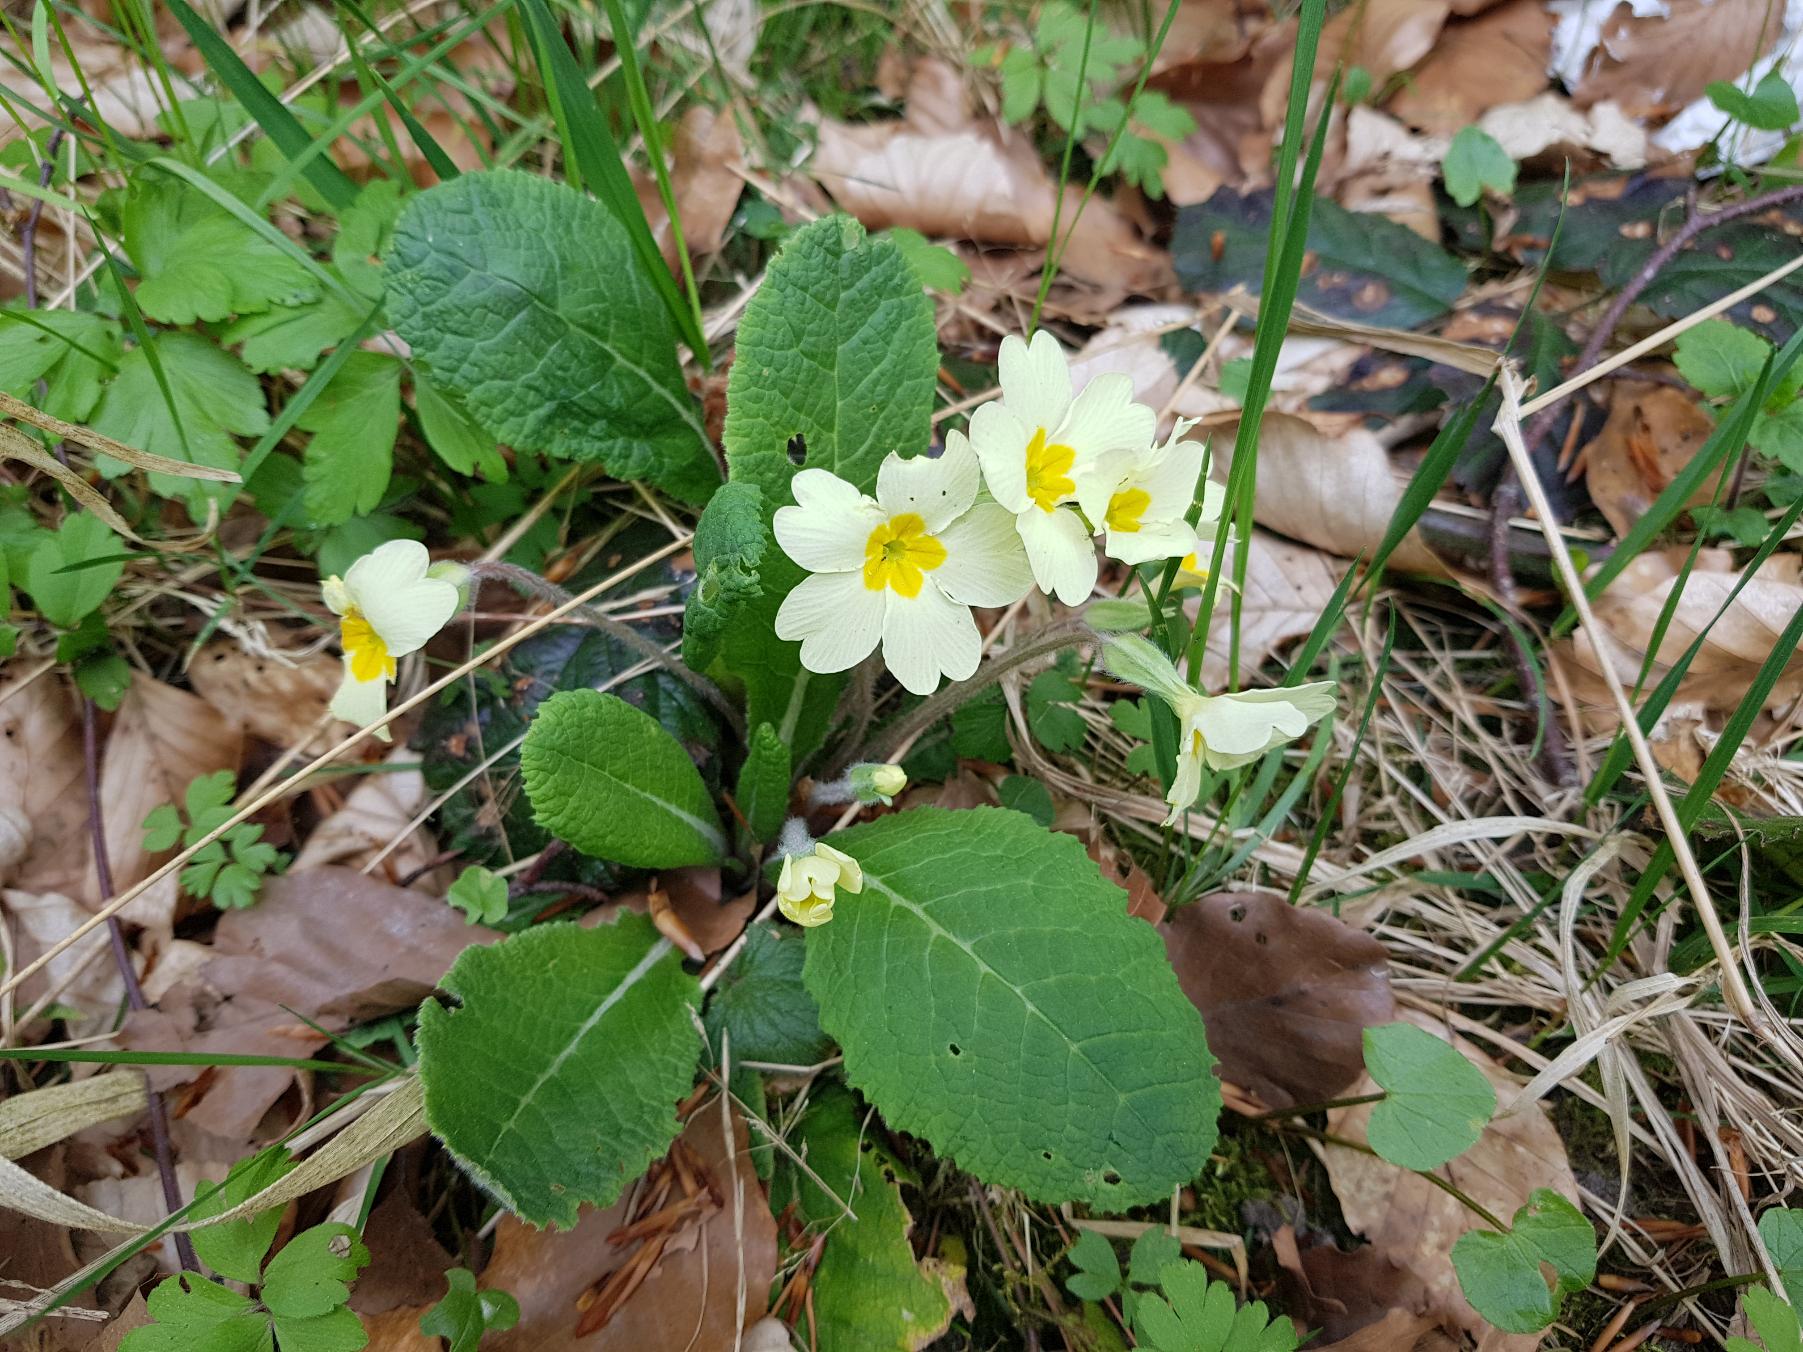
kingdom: Plantae
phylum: Tracheophyta
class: Magnoliopsida
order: Ericales
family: Primulaceae
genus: Primula
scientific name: Primula vulgaris
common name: Storblomstret kodriver
